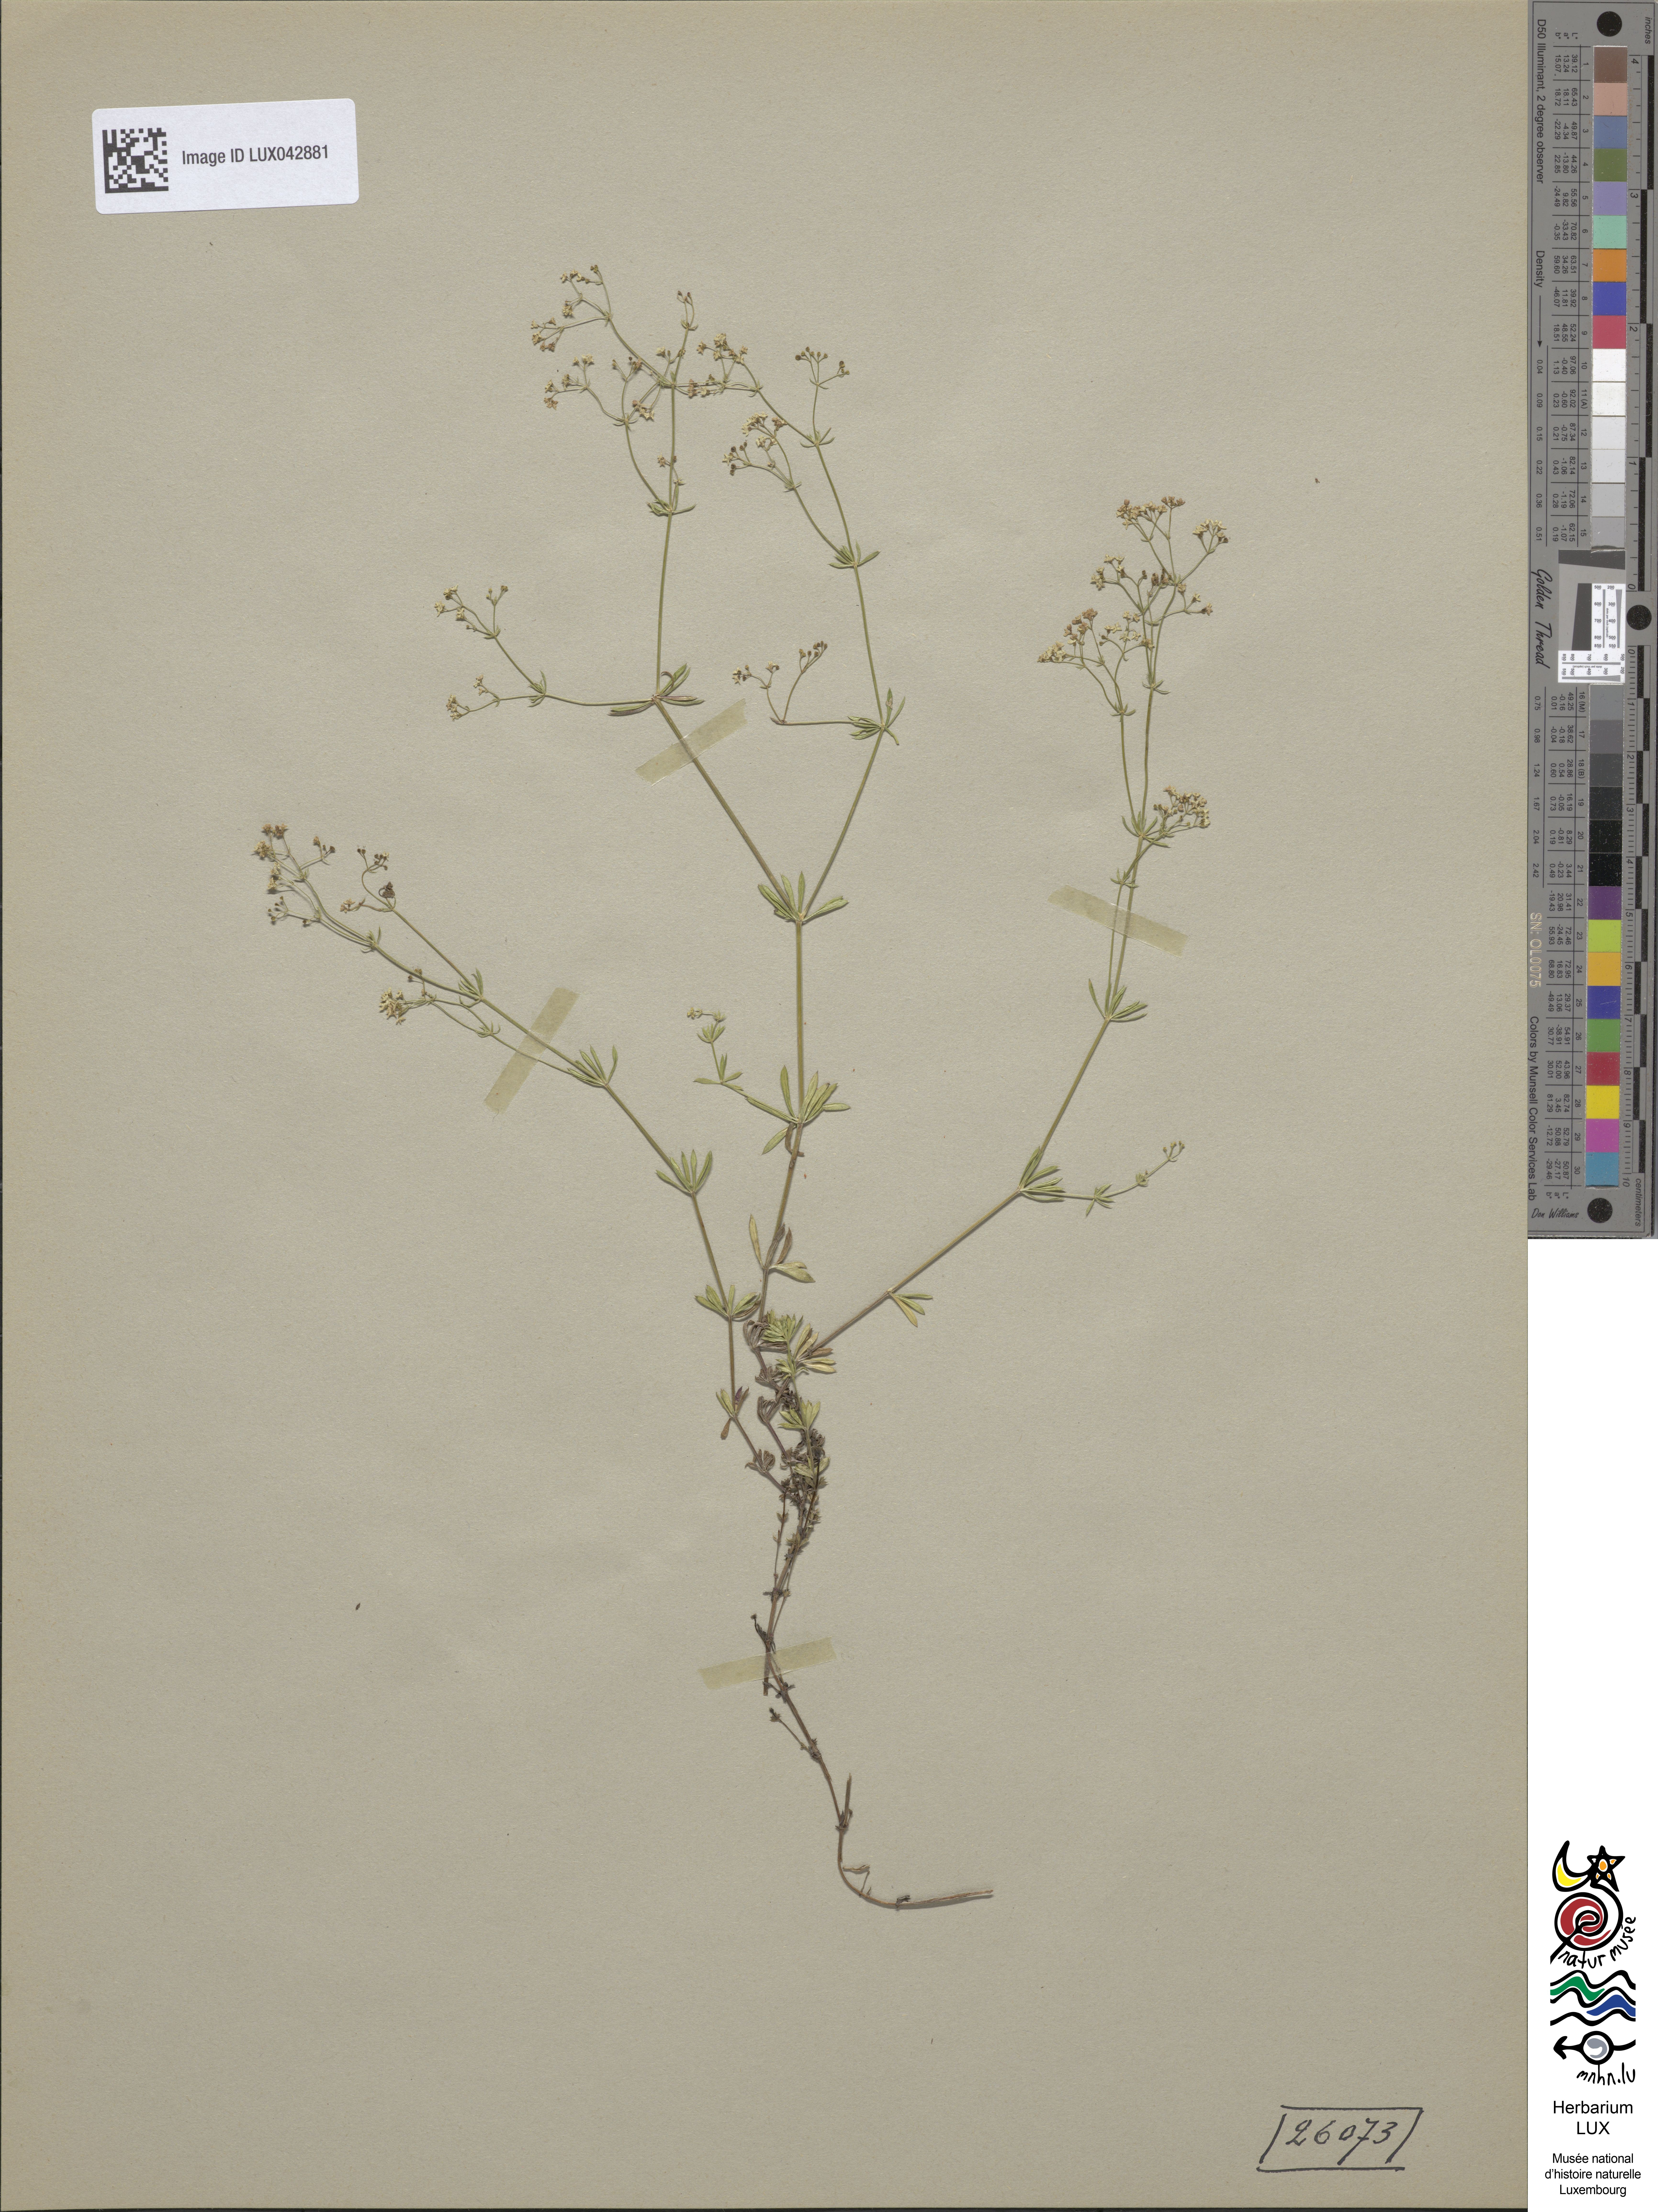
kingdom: Plantae
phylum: Tracheophyta
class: Magnoliopsida
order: Gentianales
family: Rubiaceae
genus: Galium
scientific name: Galium pumilum
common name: Slender bedstraw
